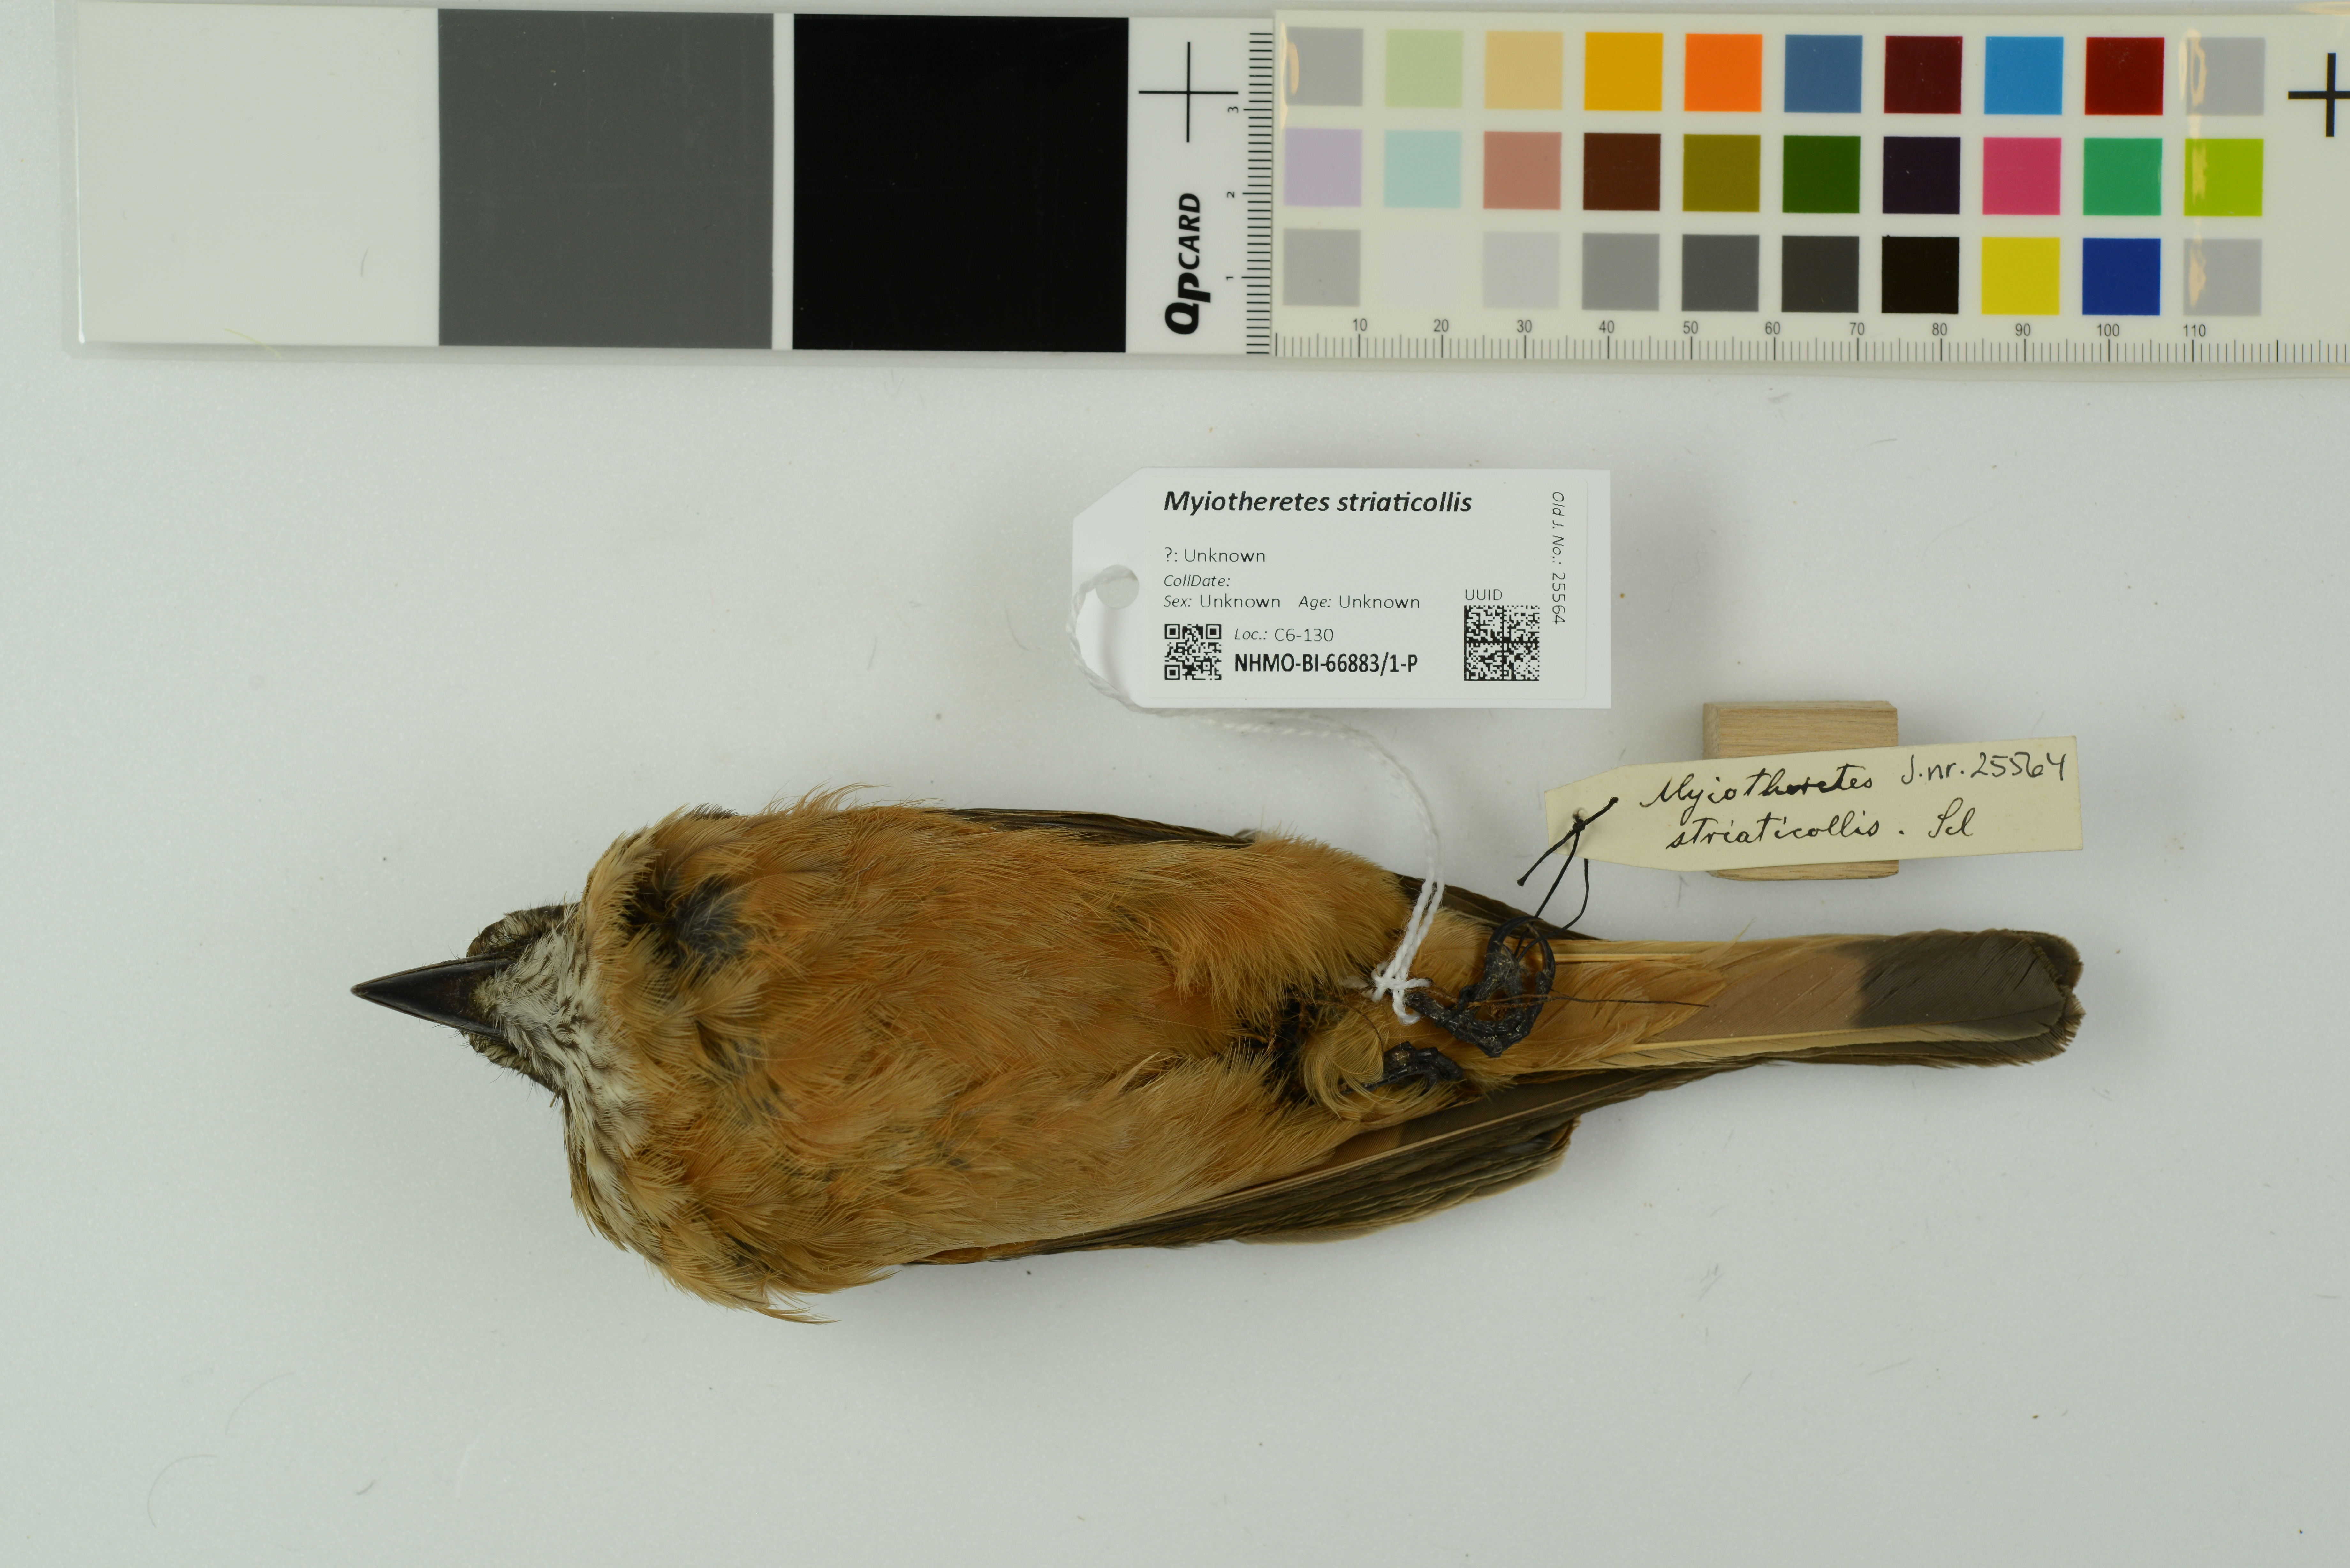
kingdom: Animalia
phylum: Chordata
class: Aves
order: Passeriformes
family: Tyrannidae
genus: Myiotheretes
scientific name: Myiotheretes striaticollis
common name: Streak-throated bush tyrant
